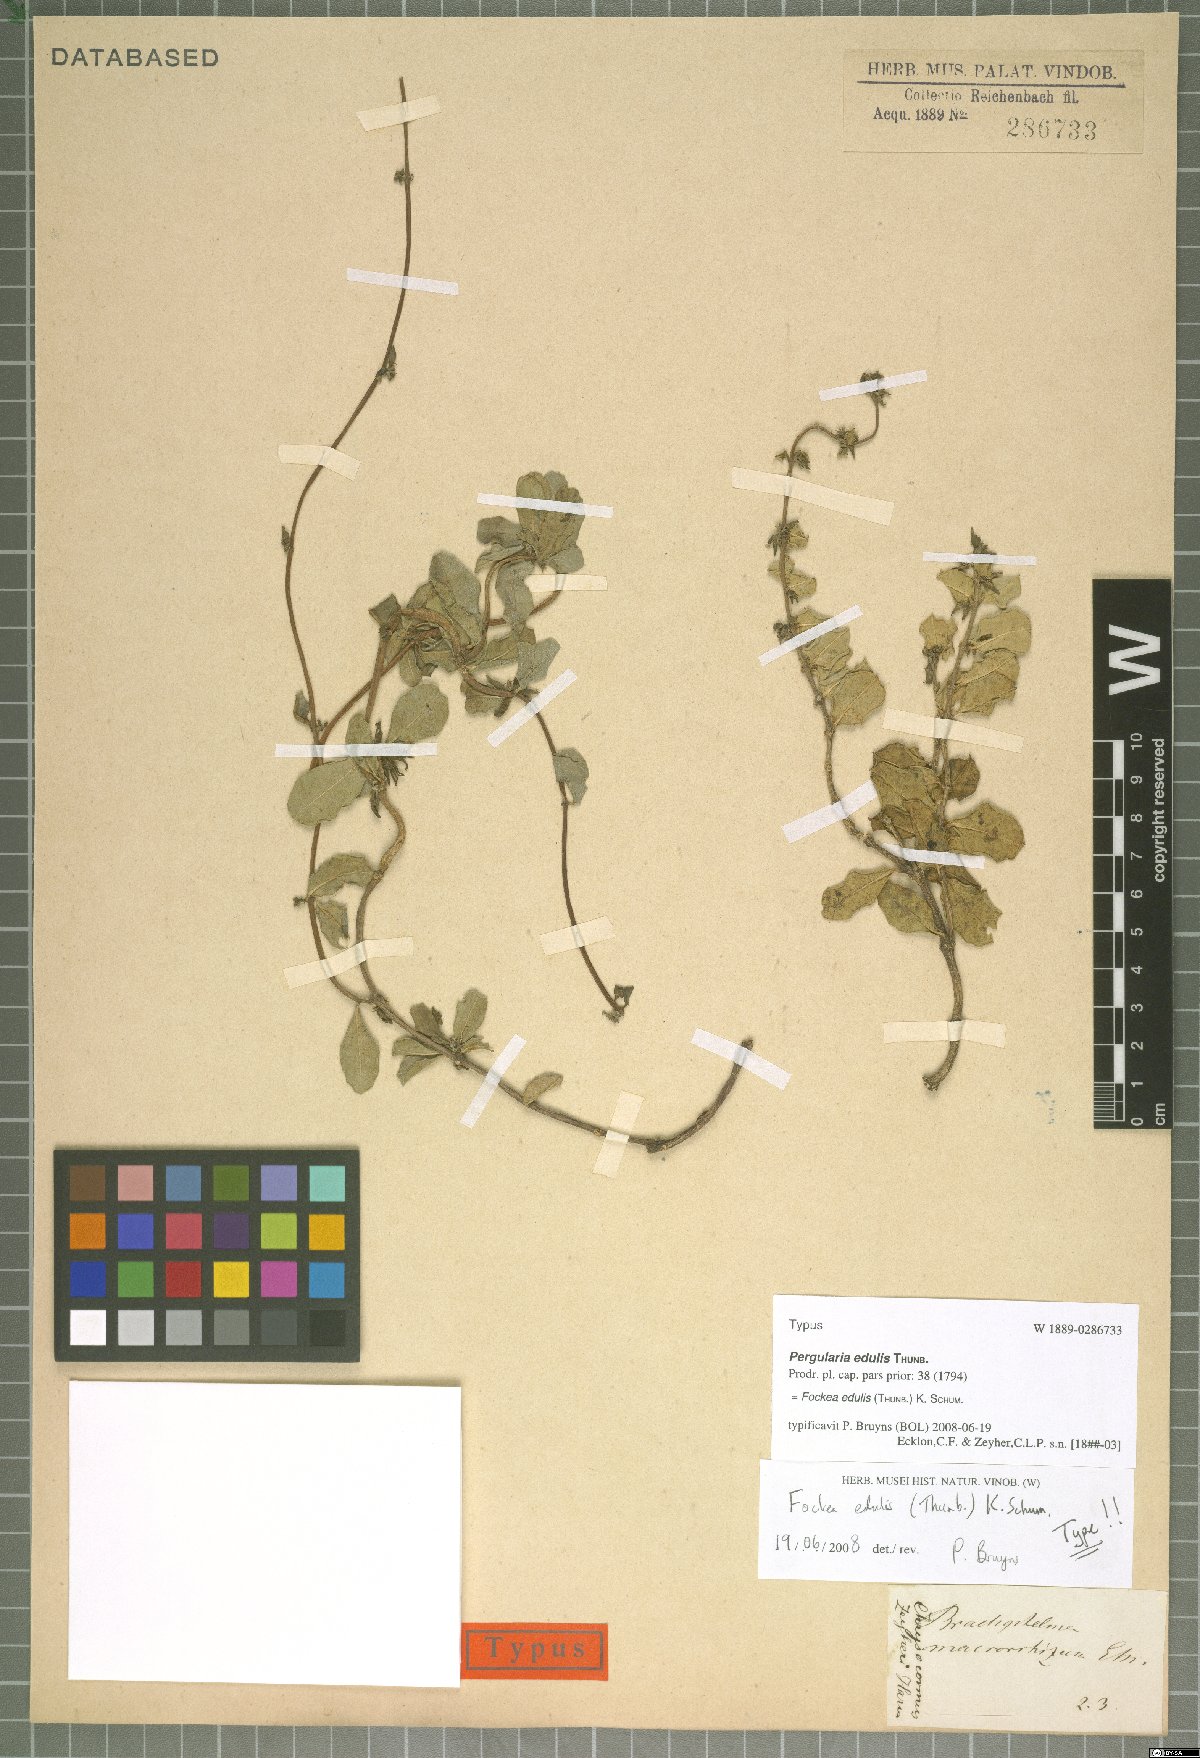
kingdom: Plantae
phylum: Tracheophyta
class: Magnoliopsida
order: Gentianales
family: Apocynaceae
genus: Fockea
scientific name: Fockea edulis
